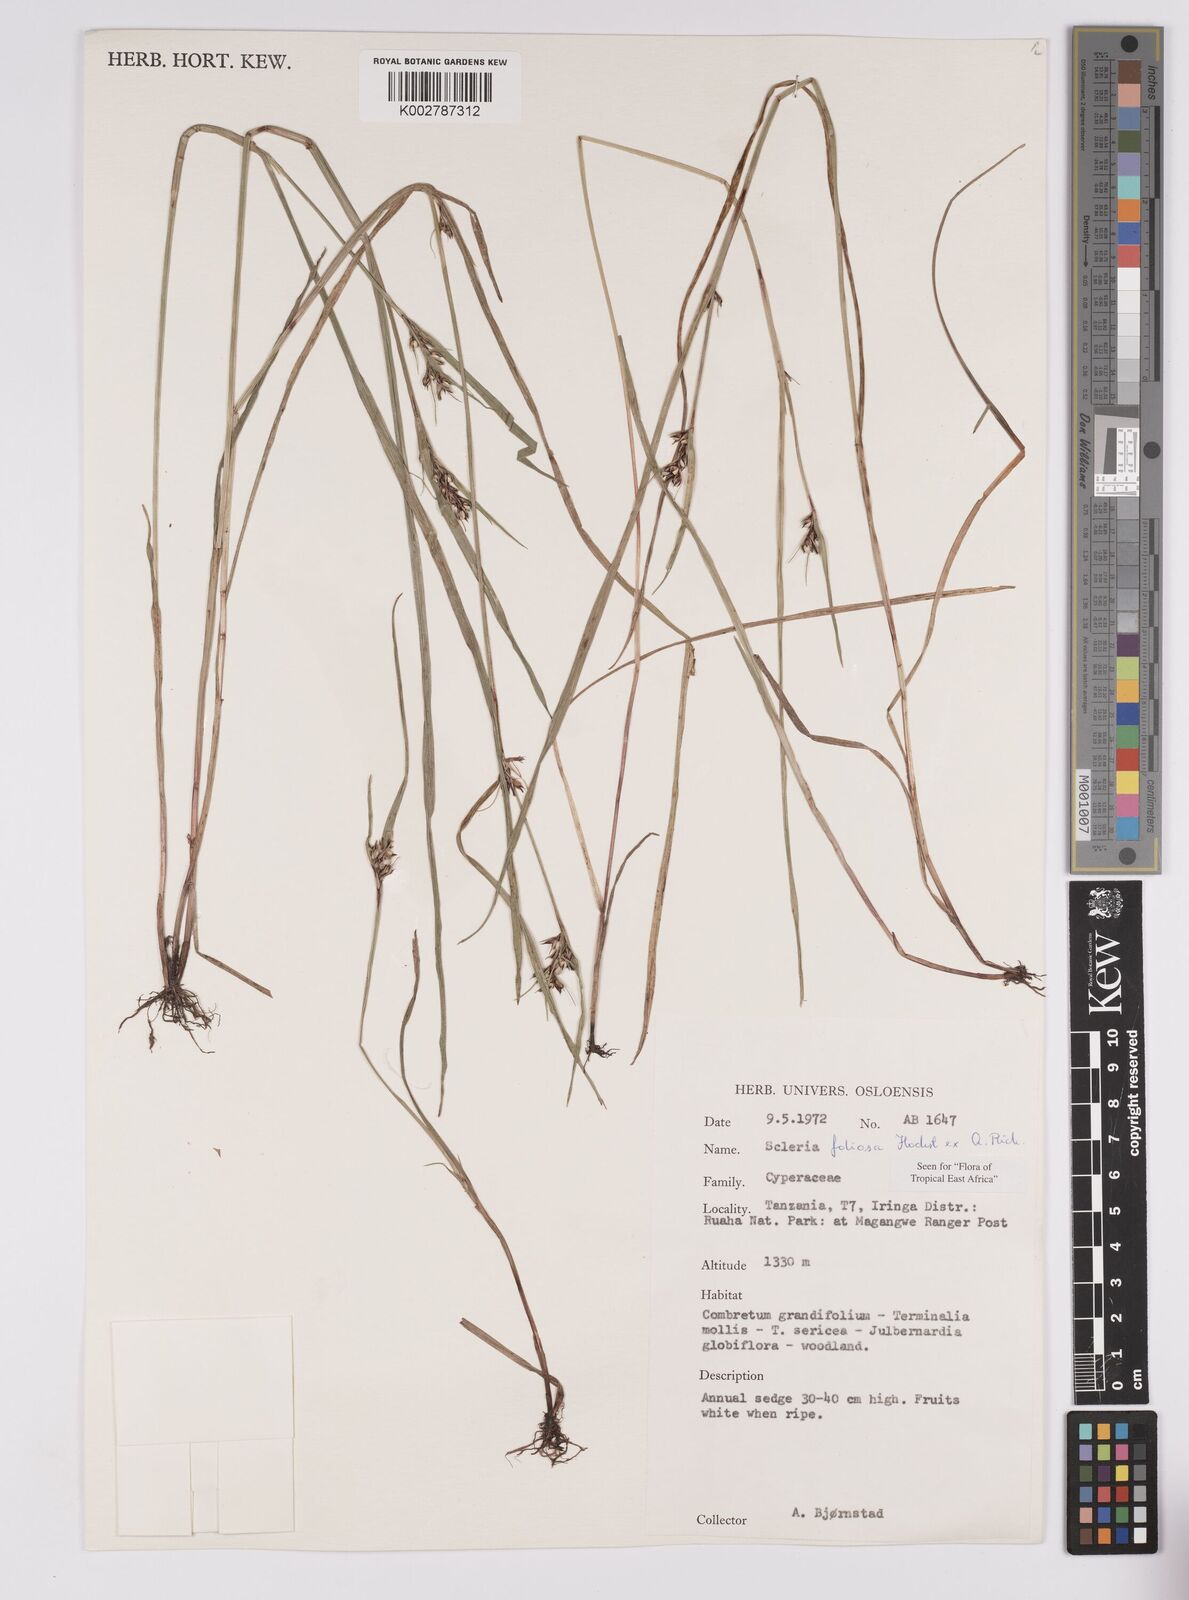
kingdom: Plantae
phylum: Tracheophyta
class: Liliopsida
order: Poales
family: Cyperaceae
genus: Scleria
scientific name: Scleria foliosa
